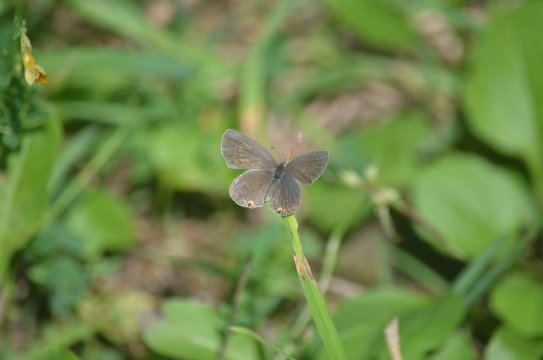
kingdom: Animalia
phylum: Arthropoda
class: Insecta
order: Lepidoptera
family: Lycaenidae
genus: Elkalyce
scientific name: Elkalyce comyntas
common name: Eastern Tailed-Blue
